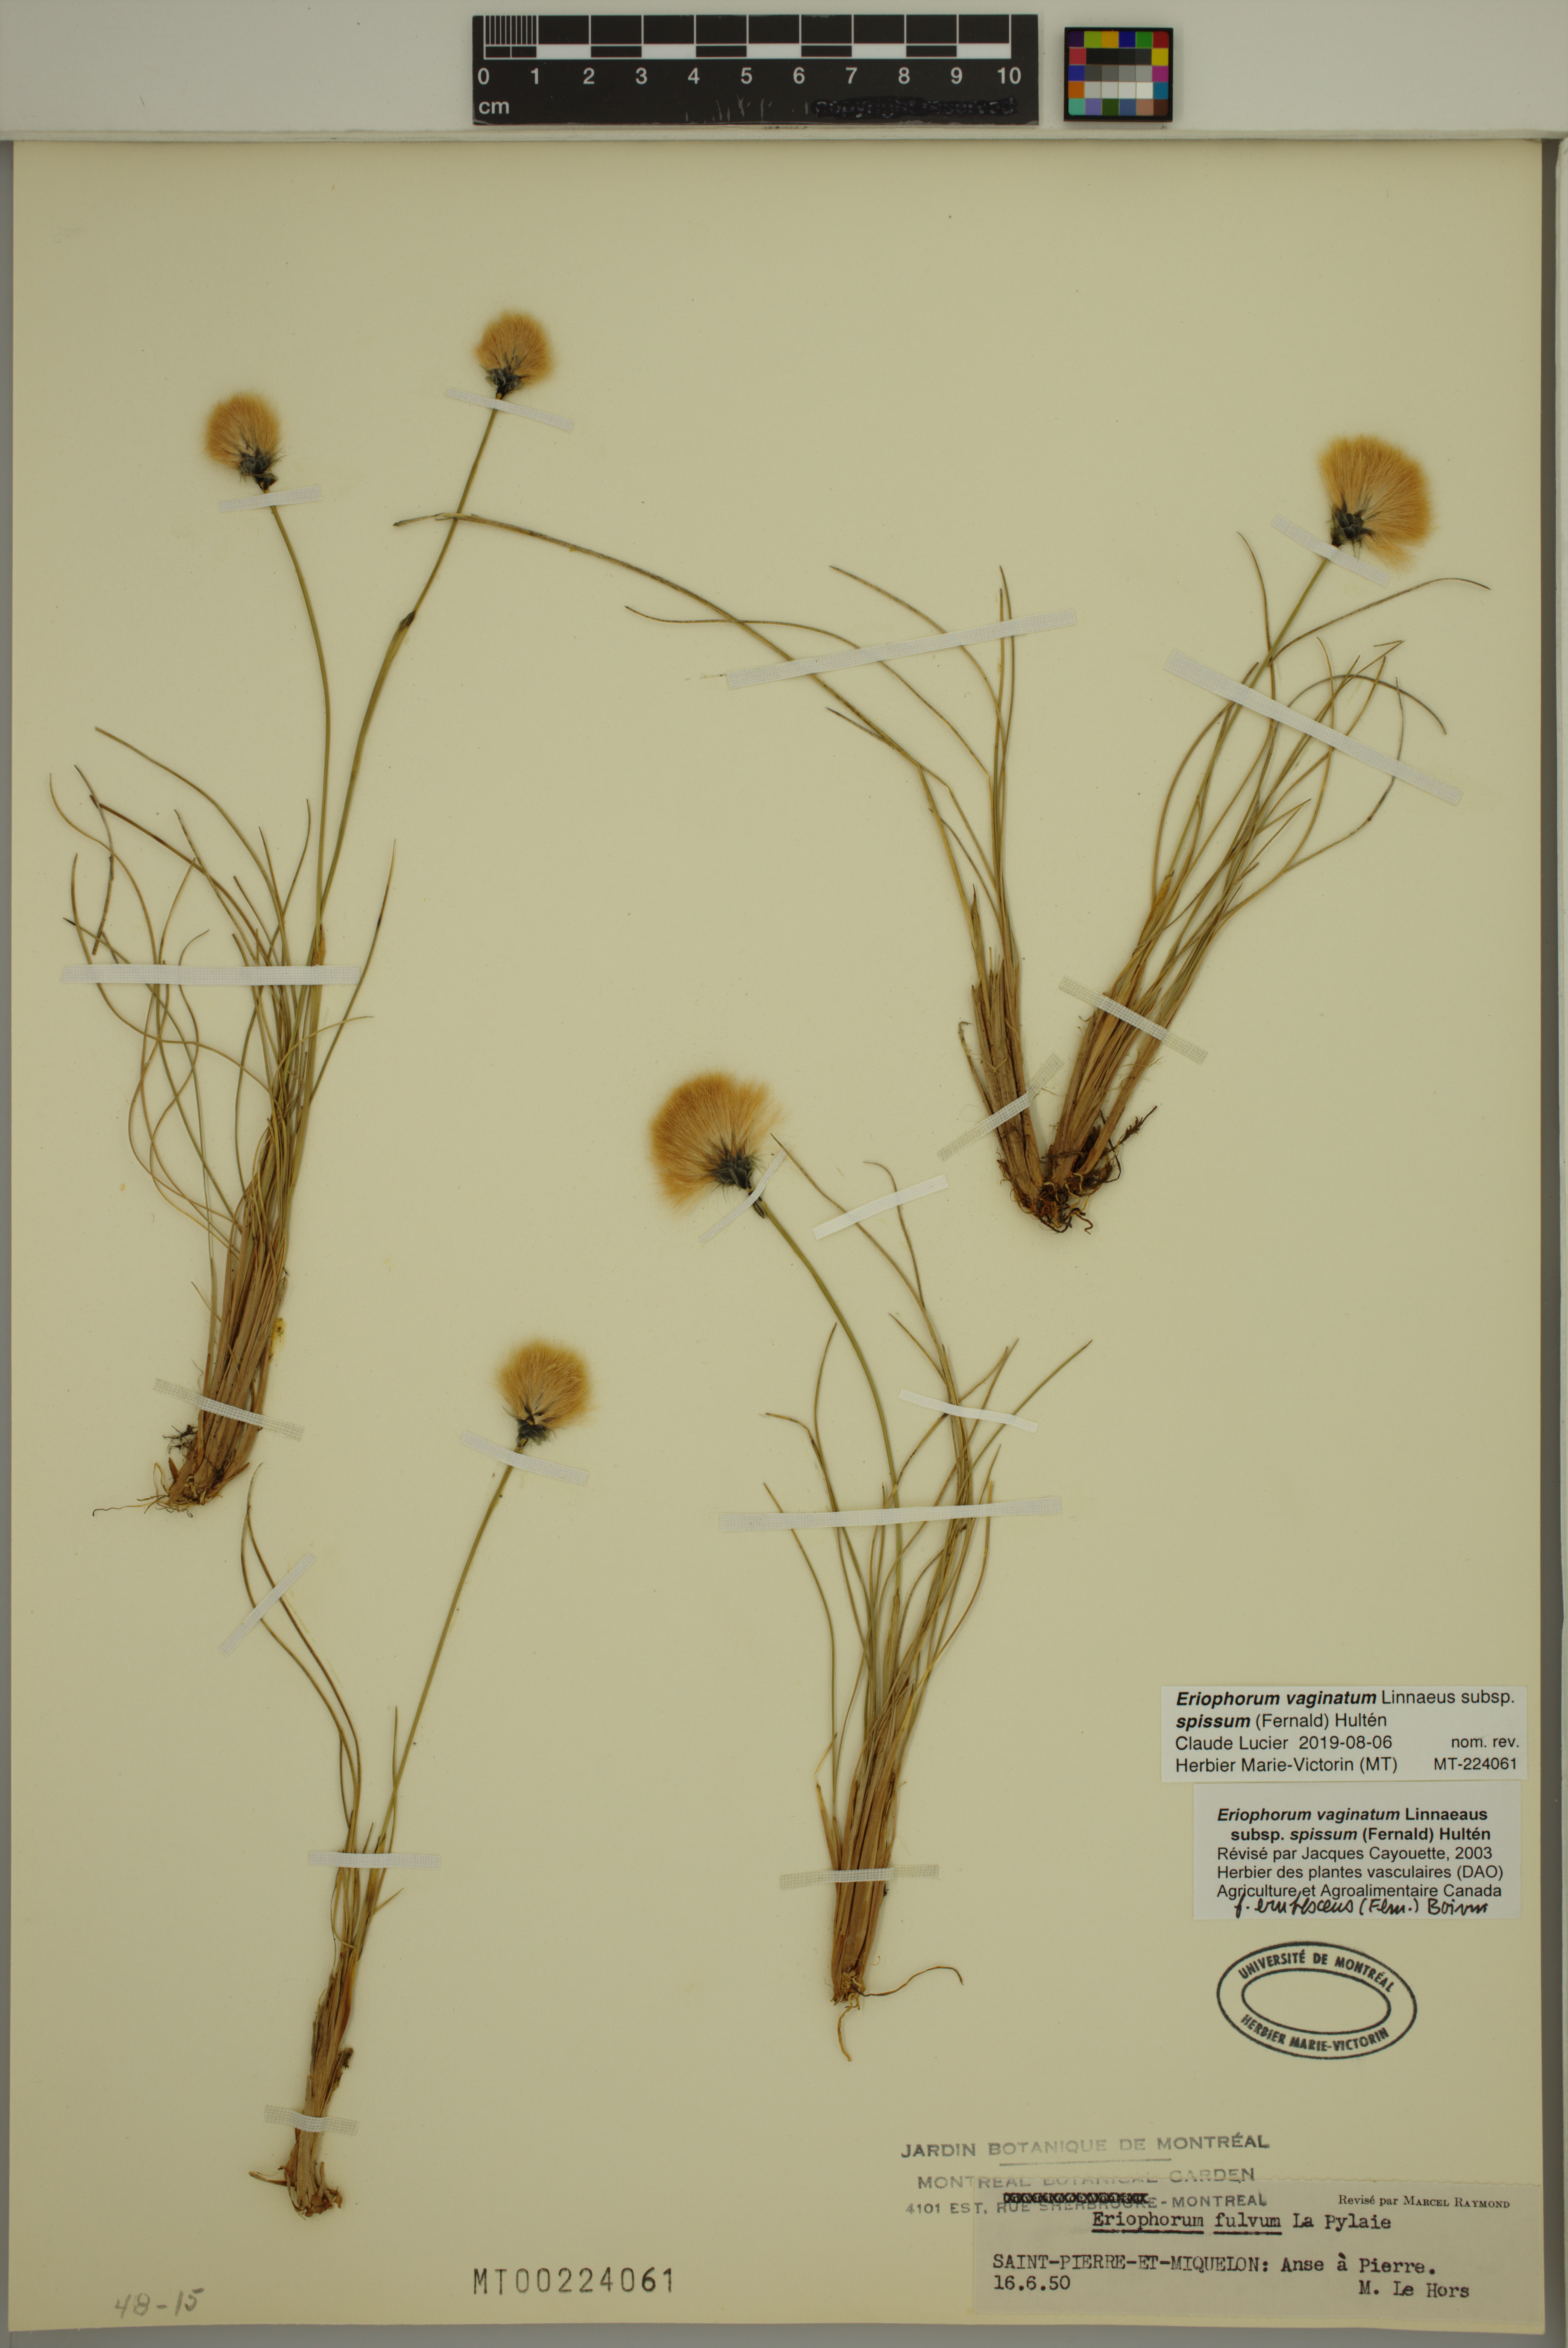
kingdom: Plantae
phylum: Tracheophyta
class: Liliopsida
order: Poales
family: Cyperaceae
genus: Eriophorum
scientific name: Eriophorum vaginatum
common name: Hare's-tail cottongrass
